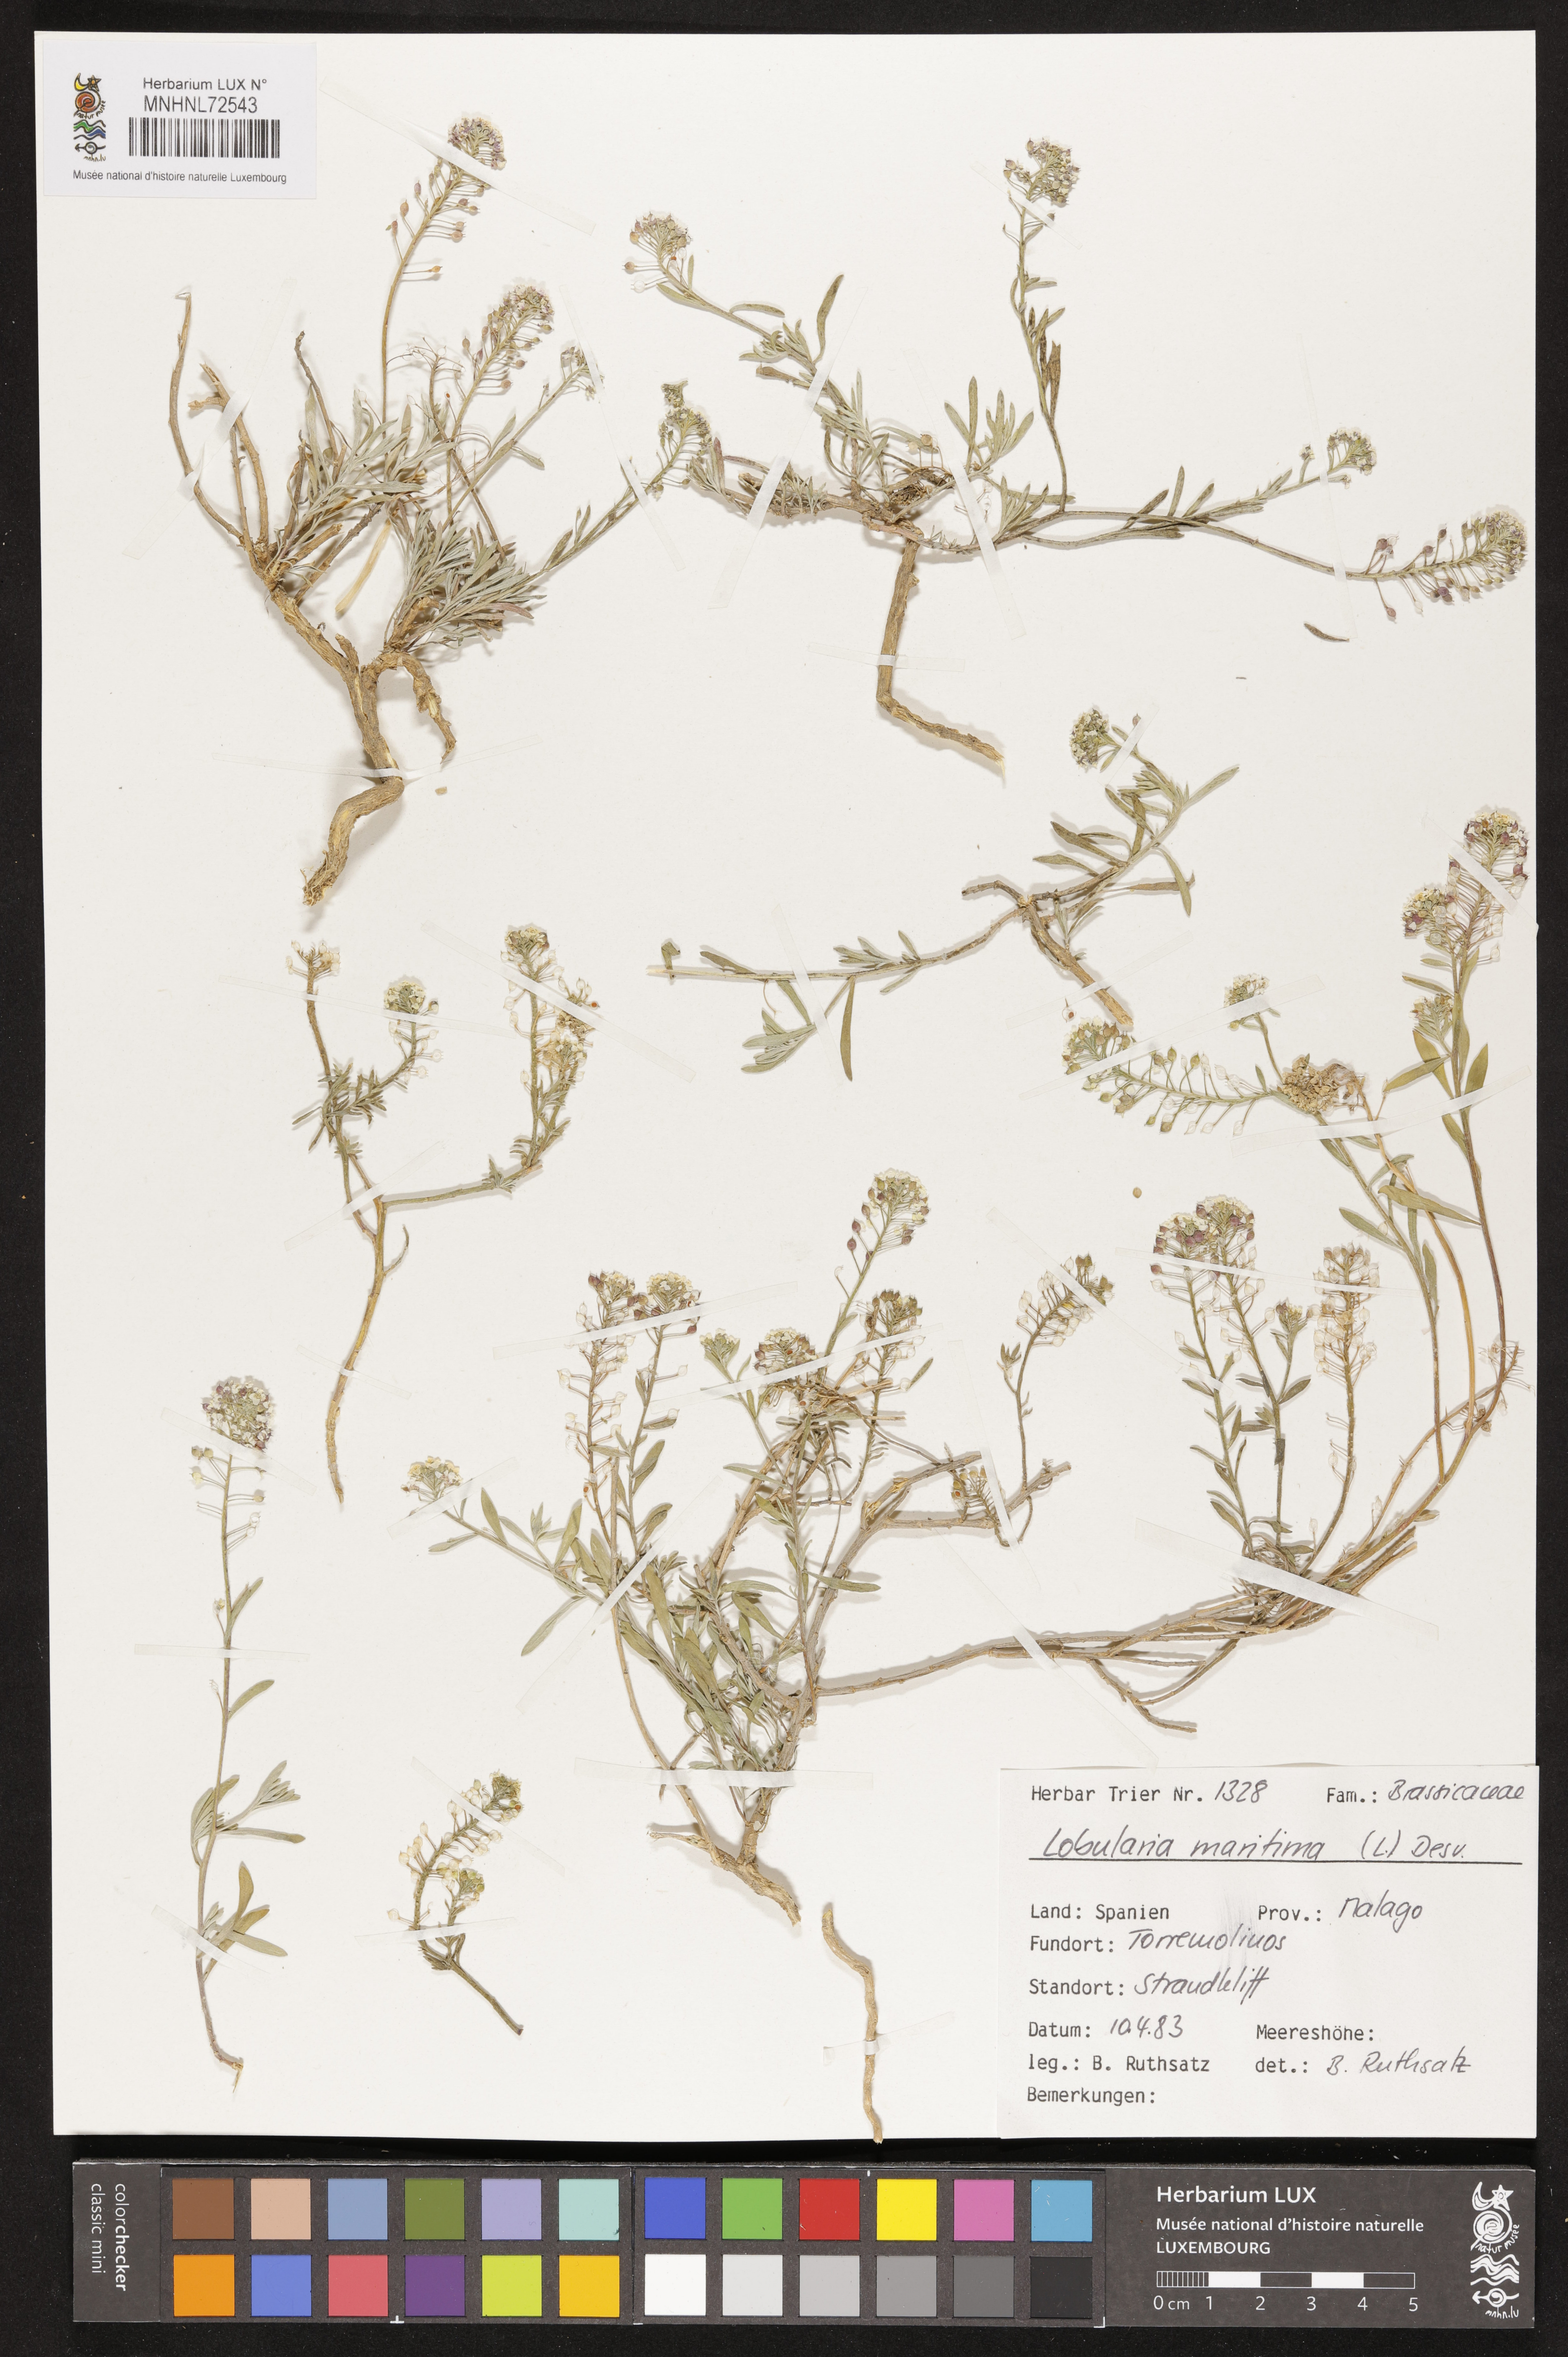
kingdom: Plantae
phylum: Tracheophyta
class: Magnoliopsida
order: Brassicales
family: Brassicaceae
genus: Lobularia
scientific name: Lobularia maritima
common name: Sweet alison
